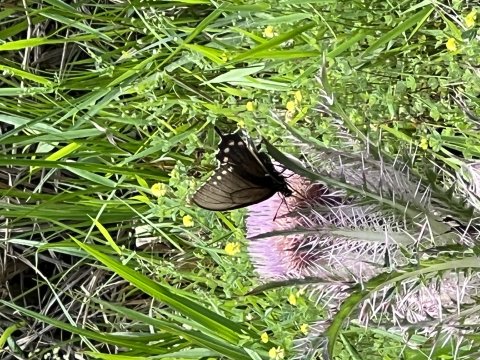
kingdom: Animalia
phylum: Arthropoda
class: Insecta
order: Lepidoptera
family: Papilionidae
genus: Battus
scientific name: Battus philenor
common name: Pipevine Swallowtail
